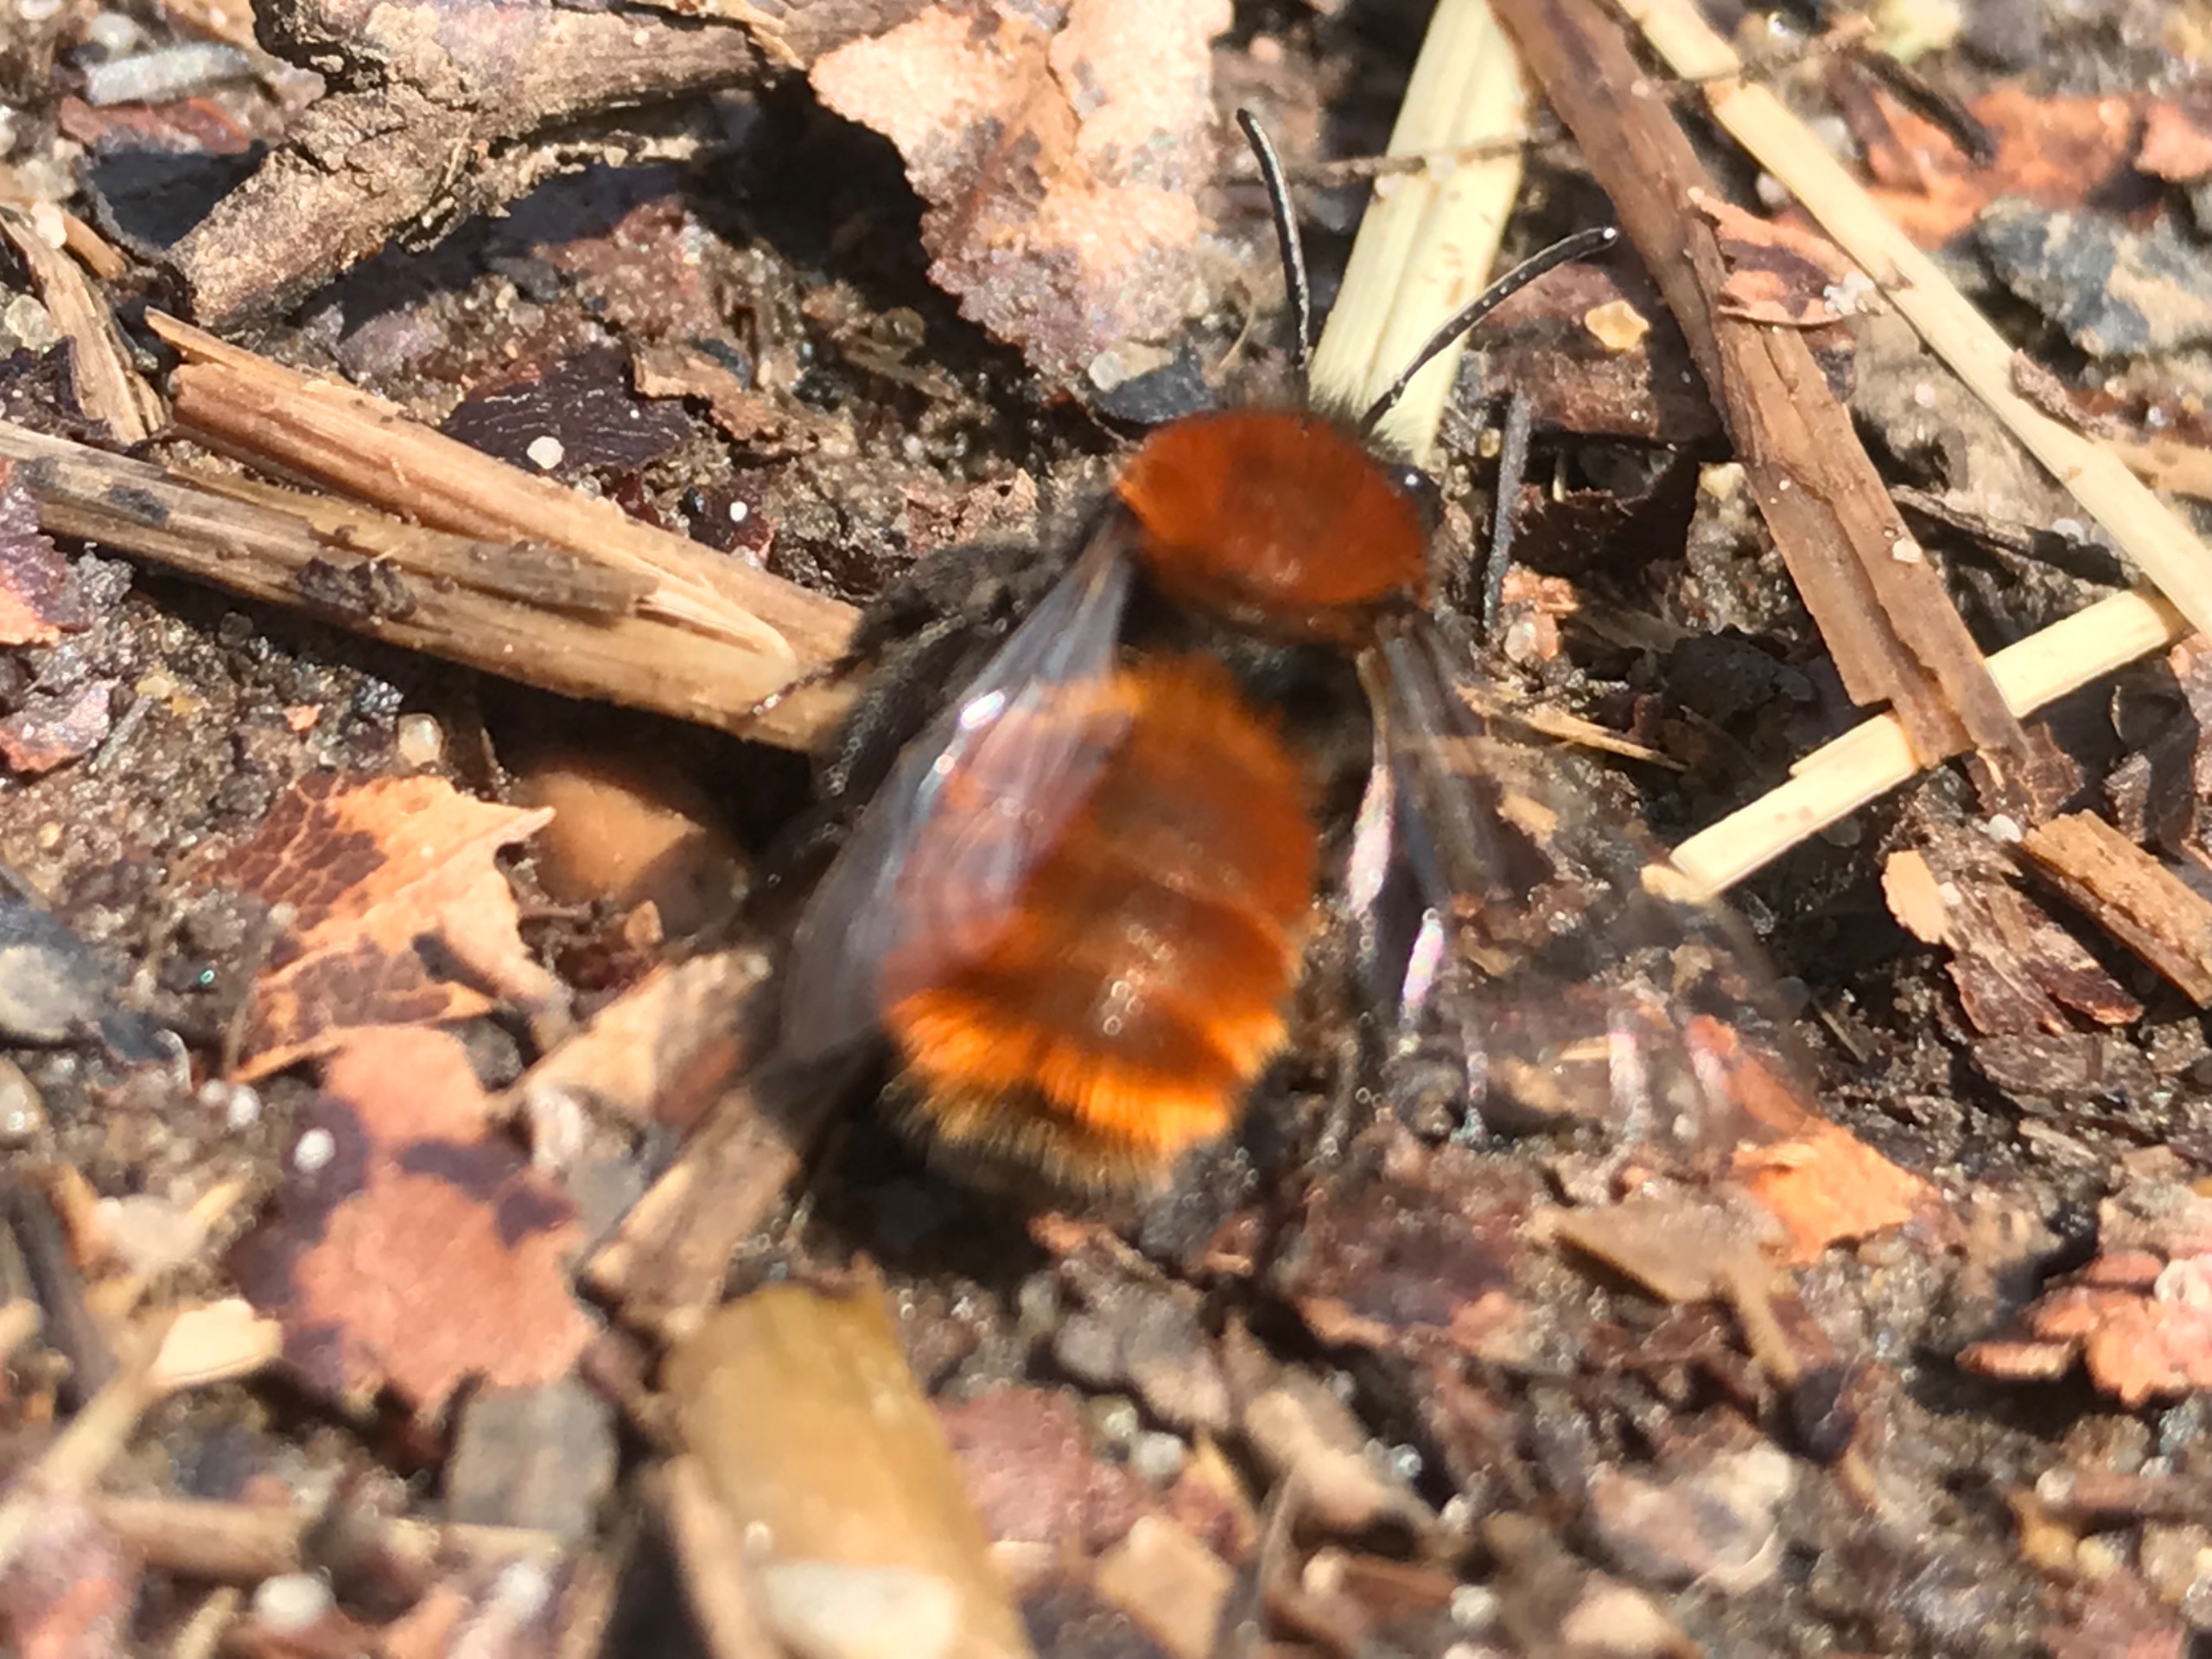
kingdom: Animalia
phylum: Arthropoda
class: Insecta
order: Hymenoptera
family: Andrenidae
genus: Andrena
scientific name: Andrena fulva
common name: Rødpelset jordbi
